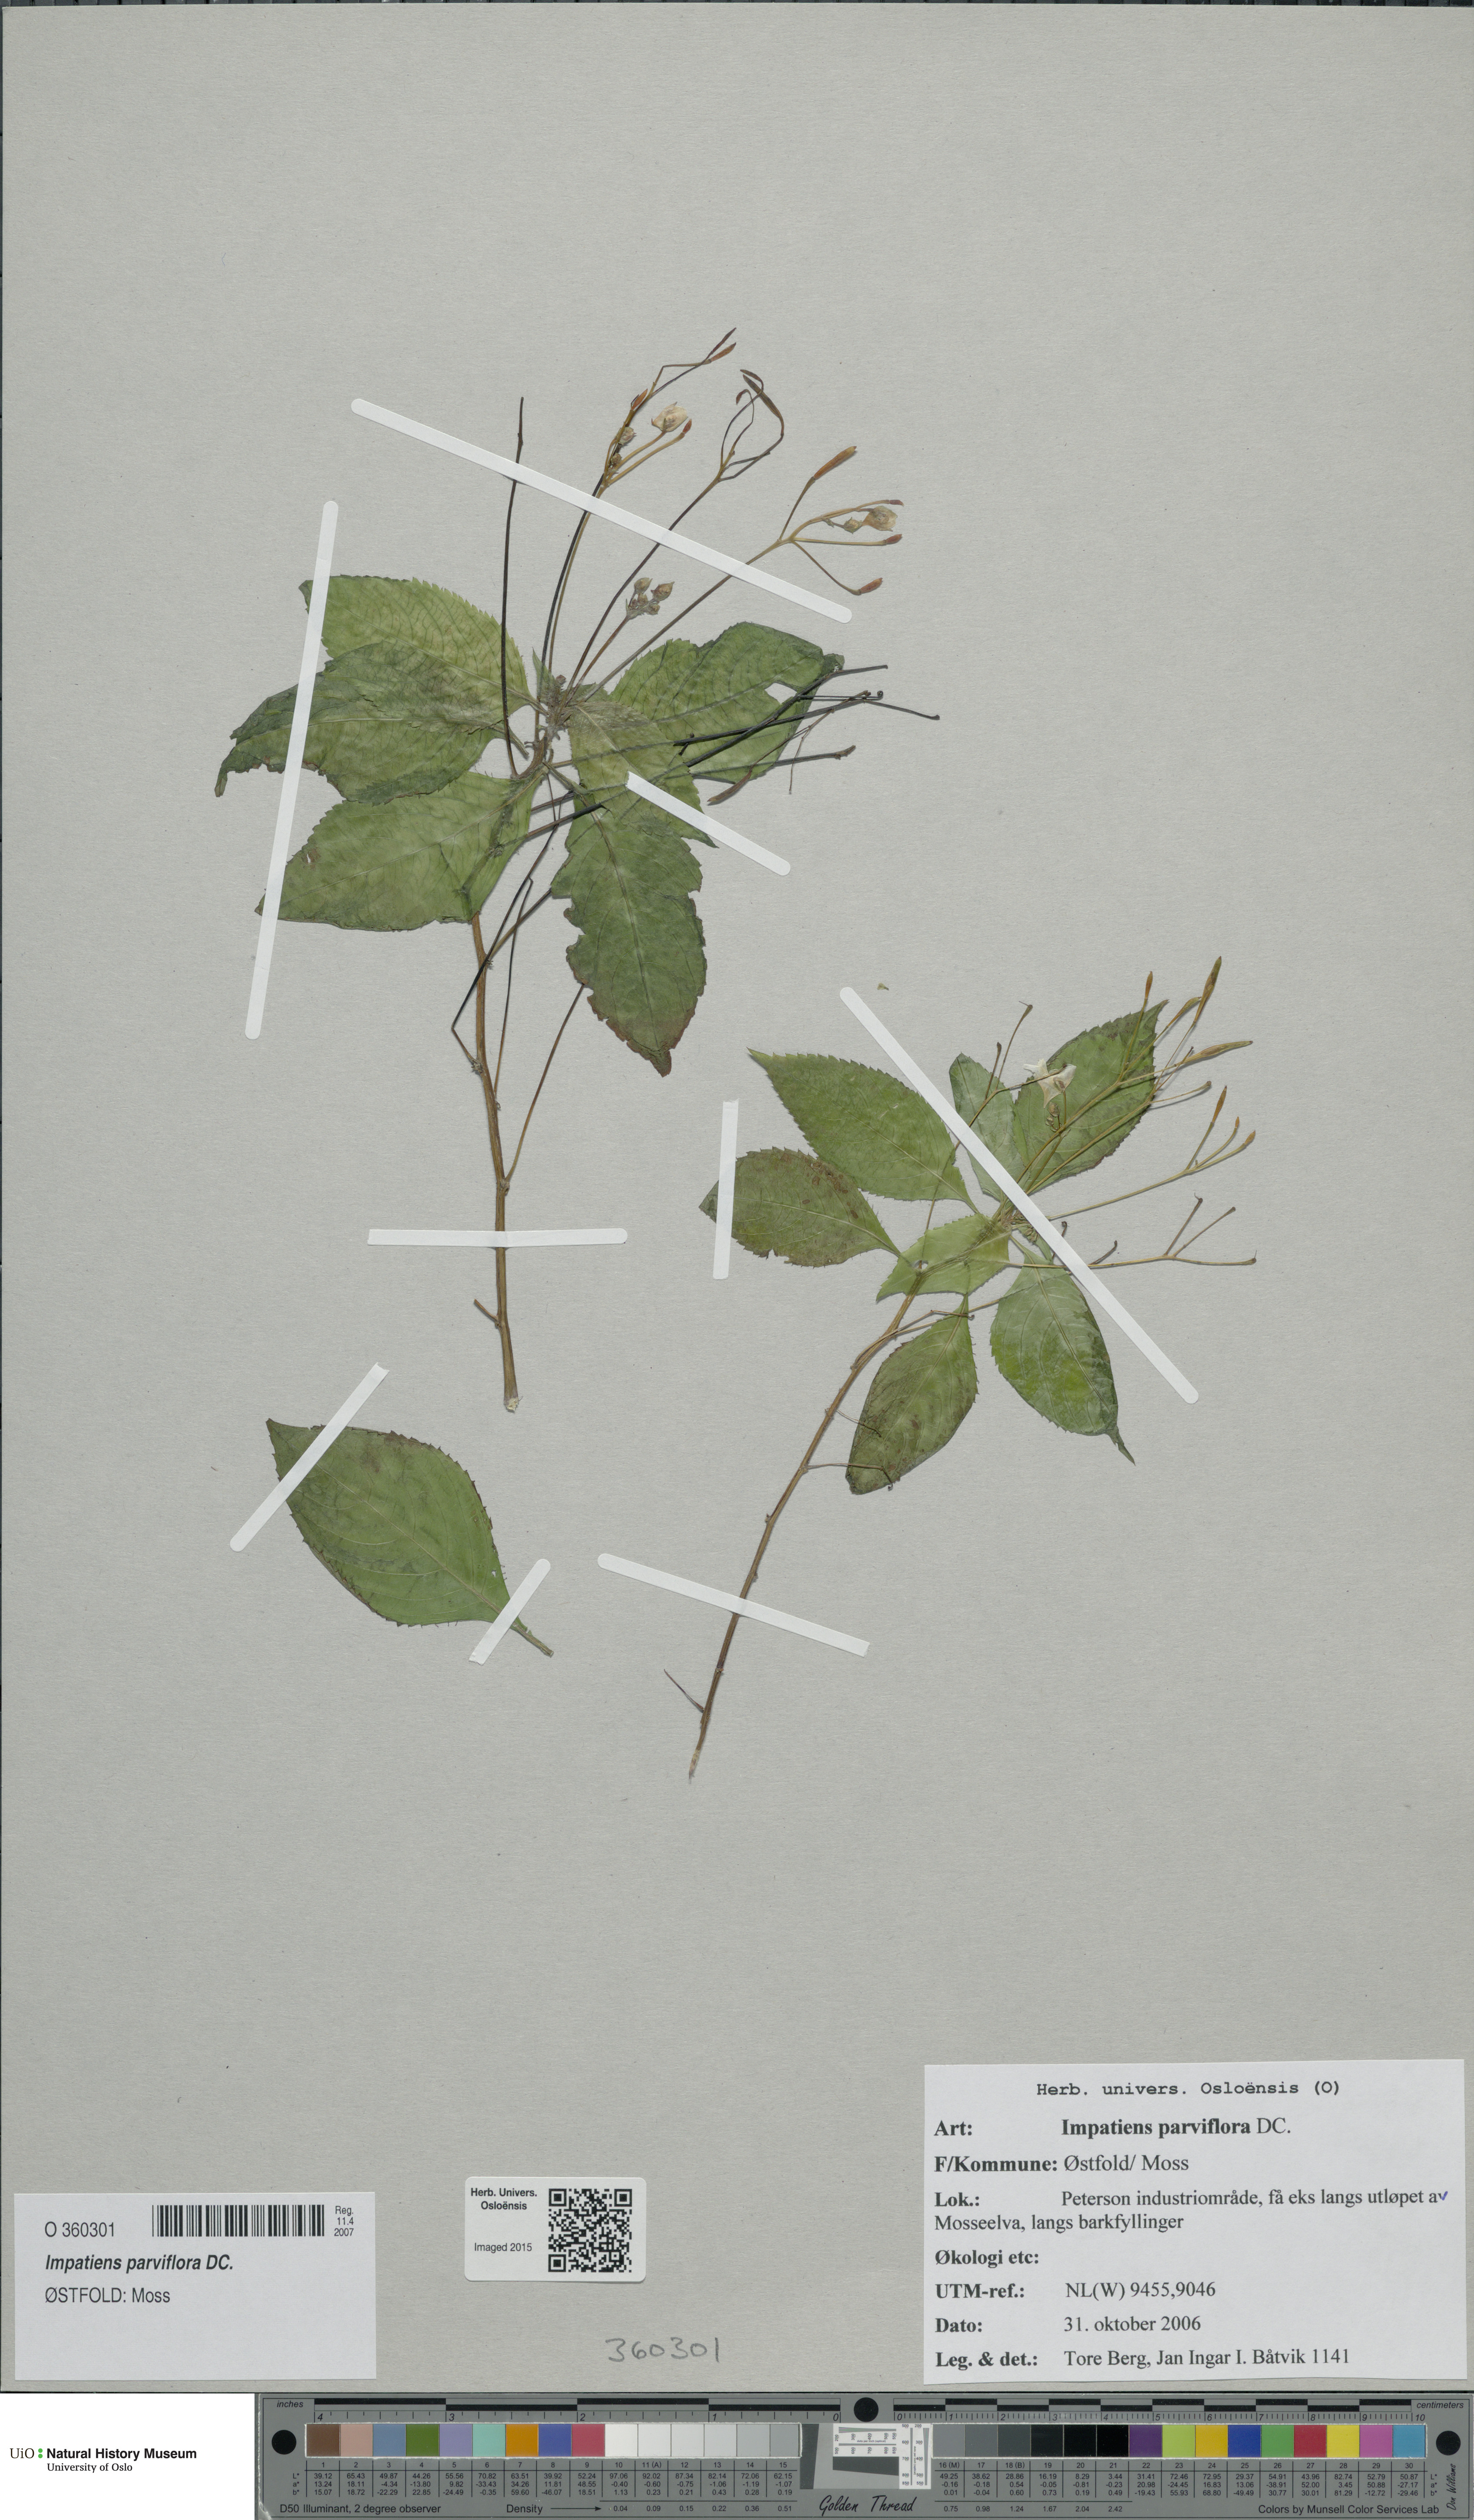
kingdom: Plantae
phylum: Tracheophyta
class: Magnoliopsida
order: Ericales
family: Balsaminaceae
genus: Impatiens
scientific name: Impatiens parviflora
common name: Small balsam
